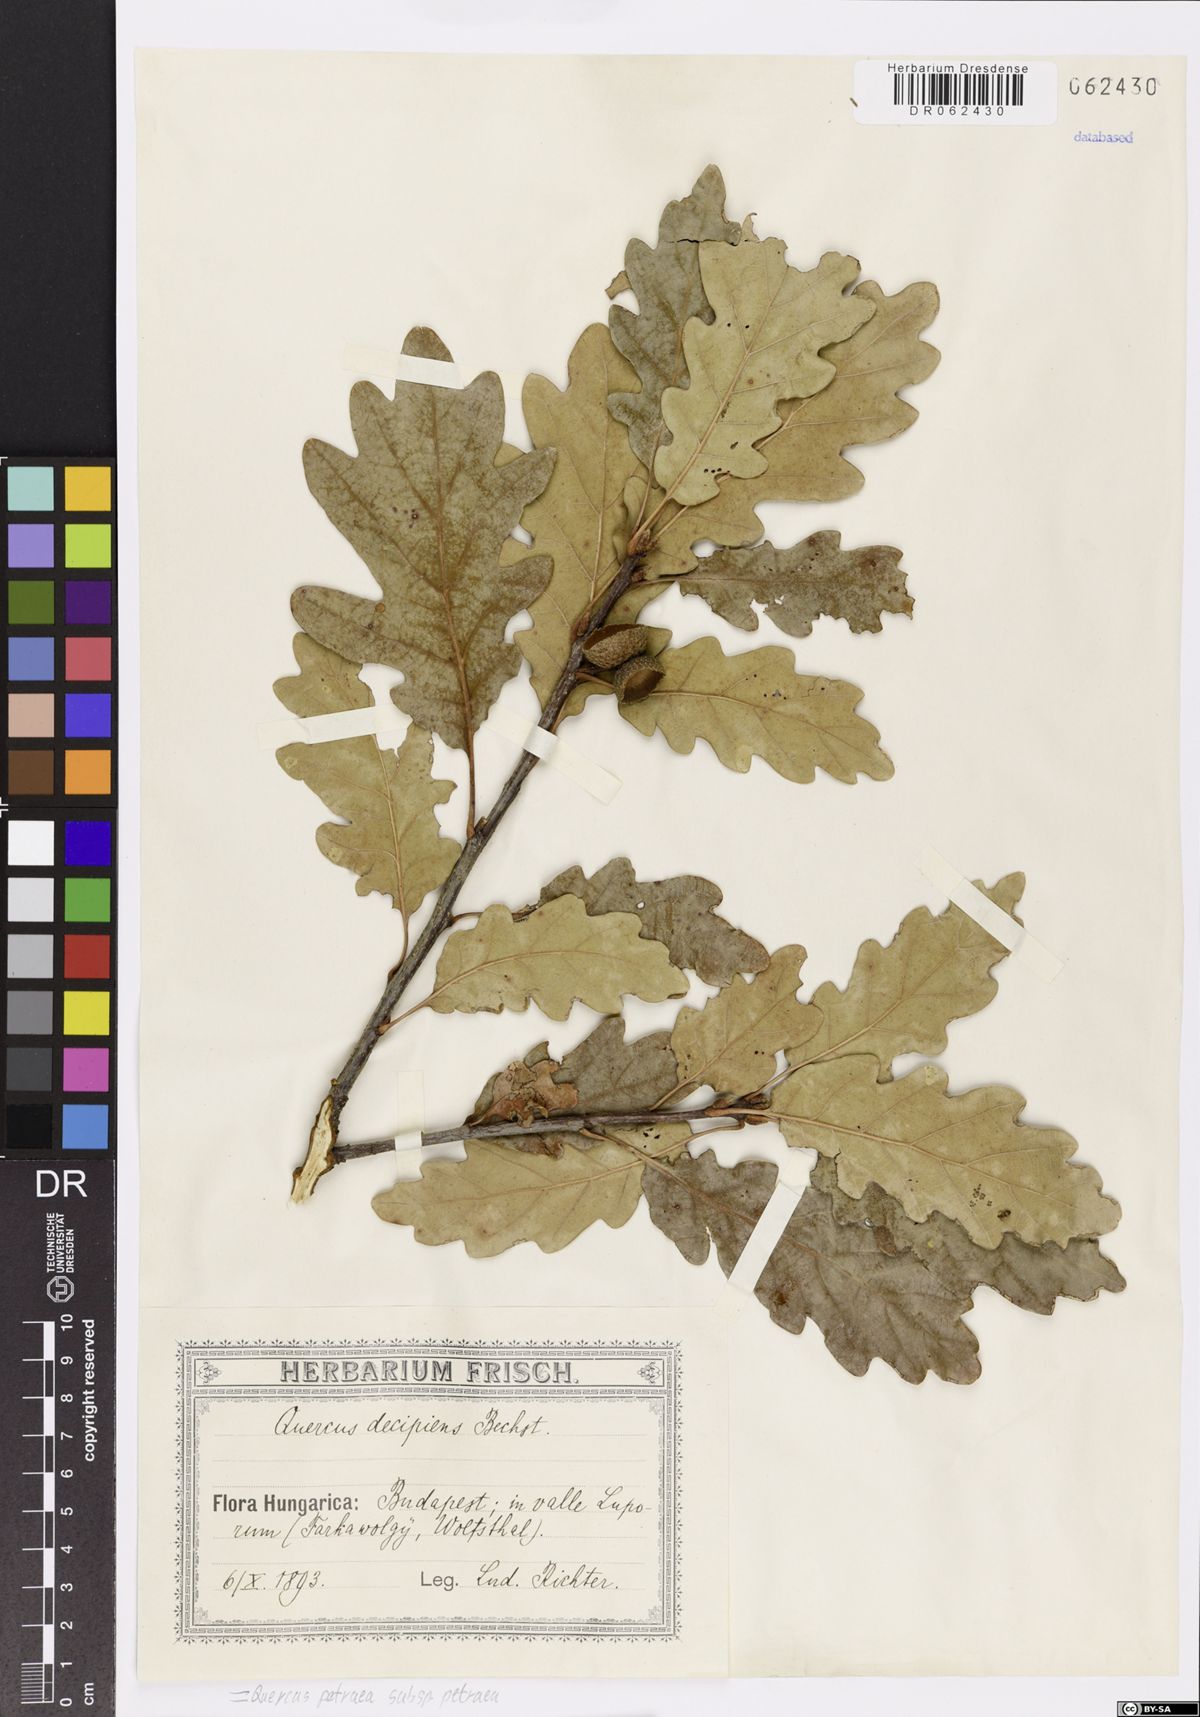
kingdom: Plantae
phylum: Tracheophyta
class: Magnoliopsida
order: Fagales
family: Fagaceae
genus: Quercus
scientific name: Quercus petraea
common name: Sessile oak
